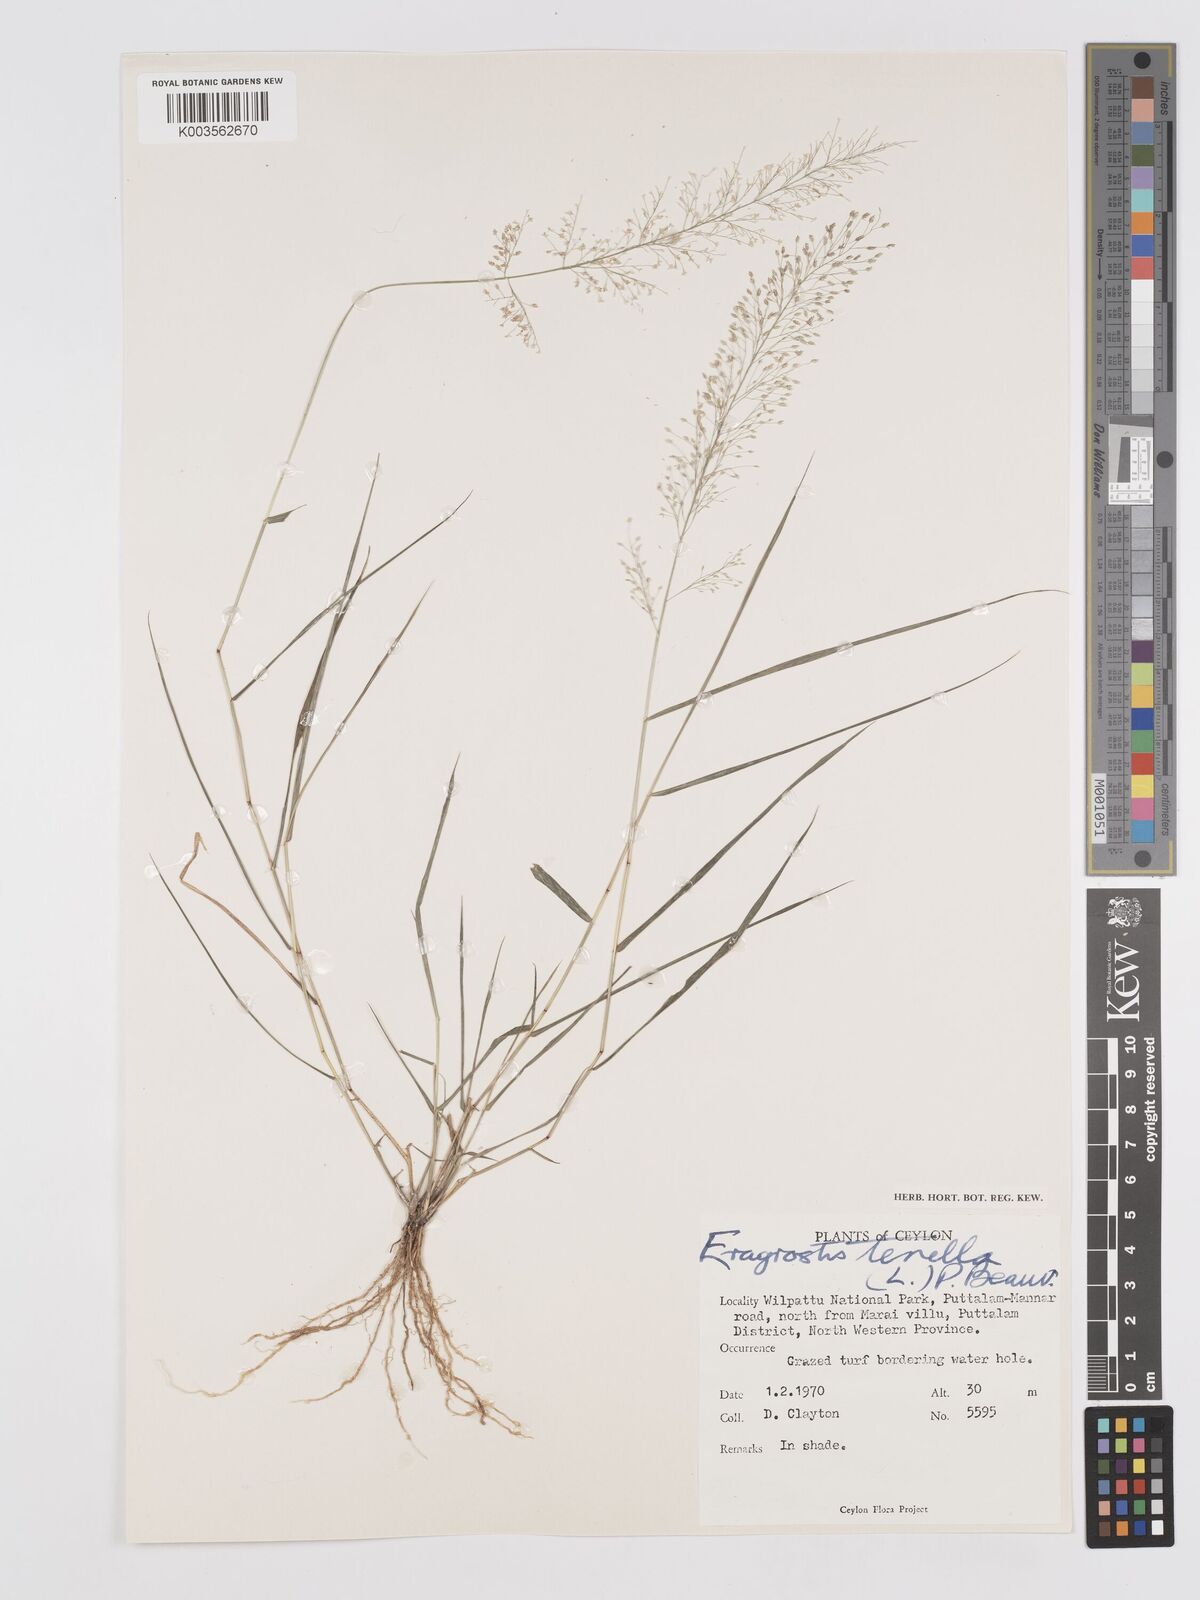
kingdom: Plantae
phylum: Tracheophyta
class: Liliopsida
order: Poales
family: Poaceae
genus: Eragrostis
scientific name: Eragrostis tenella
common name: Japanese lovegrass
